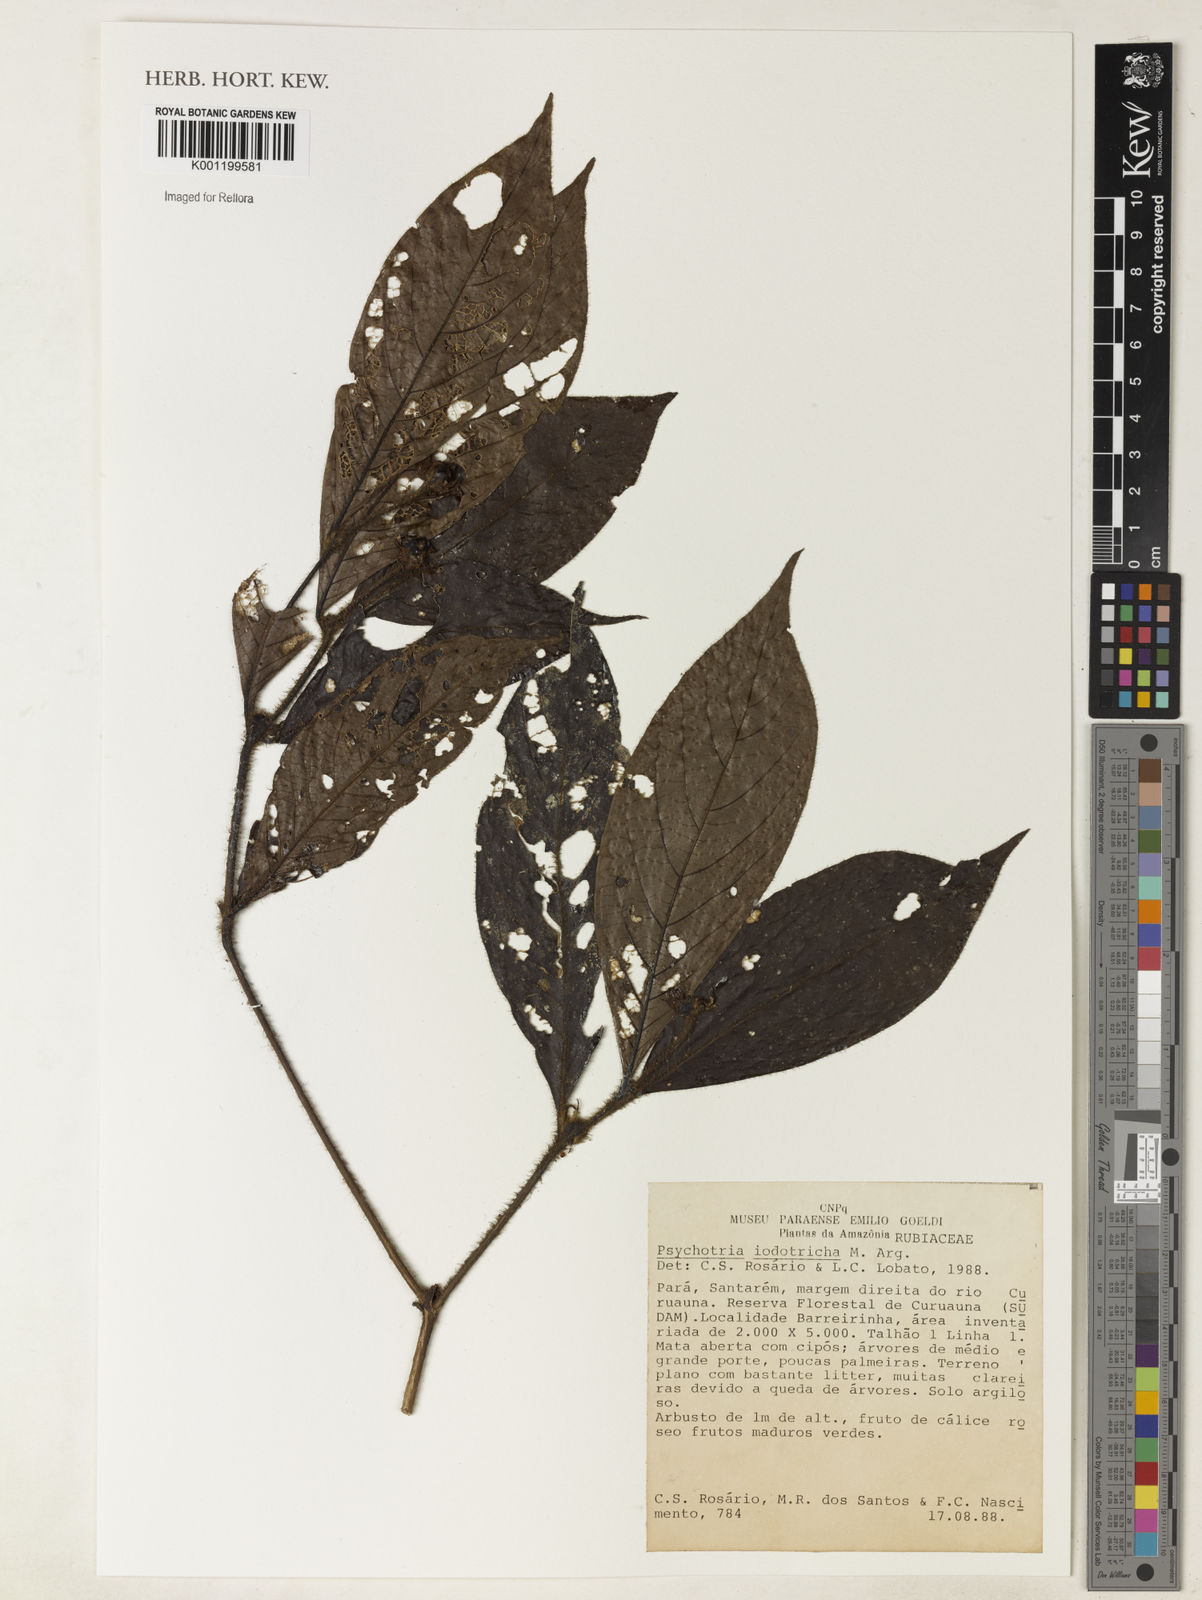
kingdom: Plantae
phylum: Tracheophyta
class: Magnoliopsida
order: Gentianales
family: Rubiaceae
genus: Psychotria
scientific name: Psychotria
